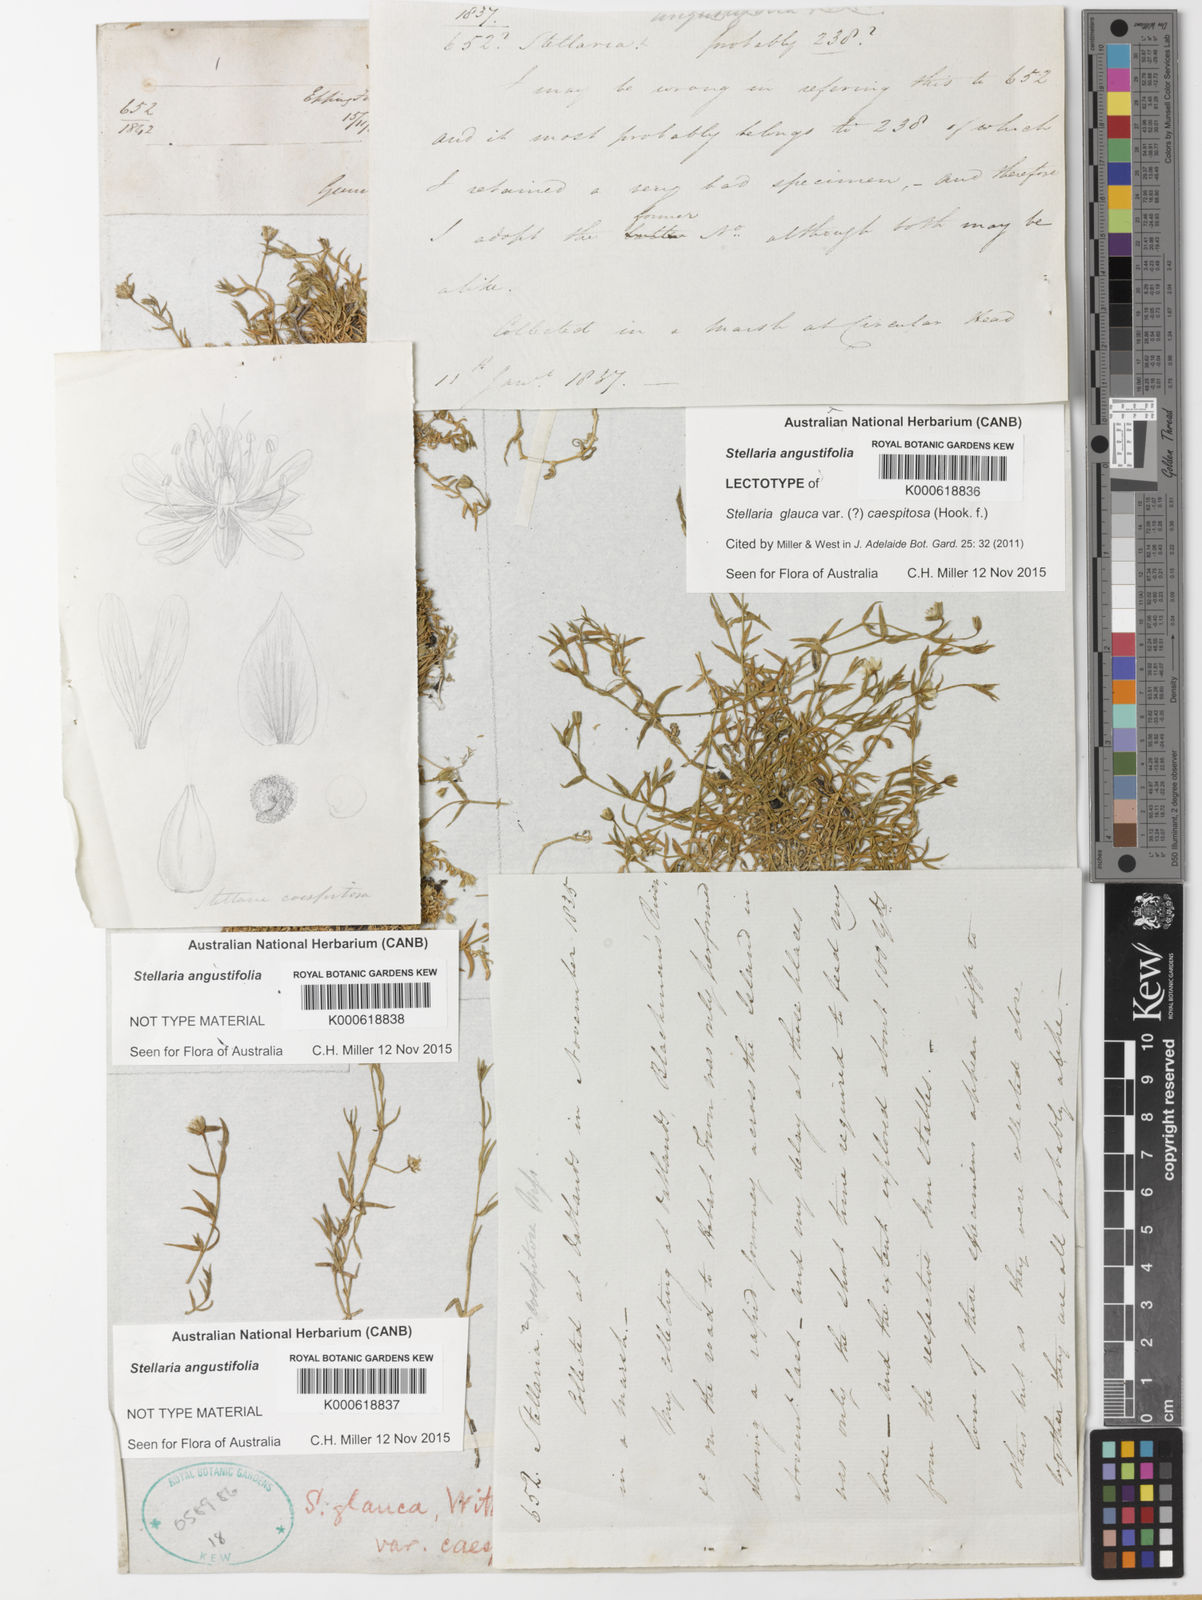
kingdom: Plantae
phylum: Tracheophyta
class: Magnoliopsida
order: Caryophyllales
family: Caryophyllaceae
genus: Stellaria
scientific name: Stellaria angustifolia
